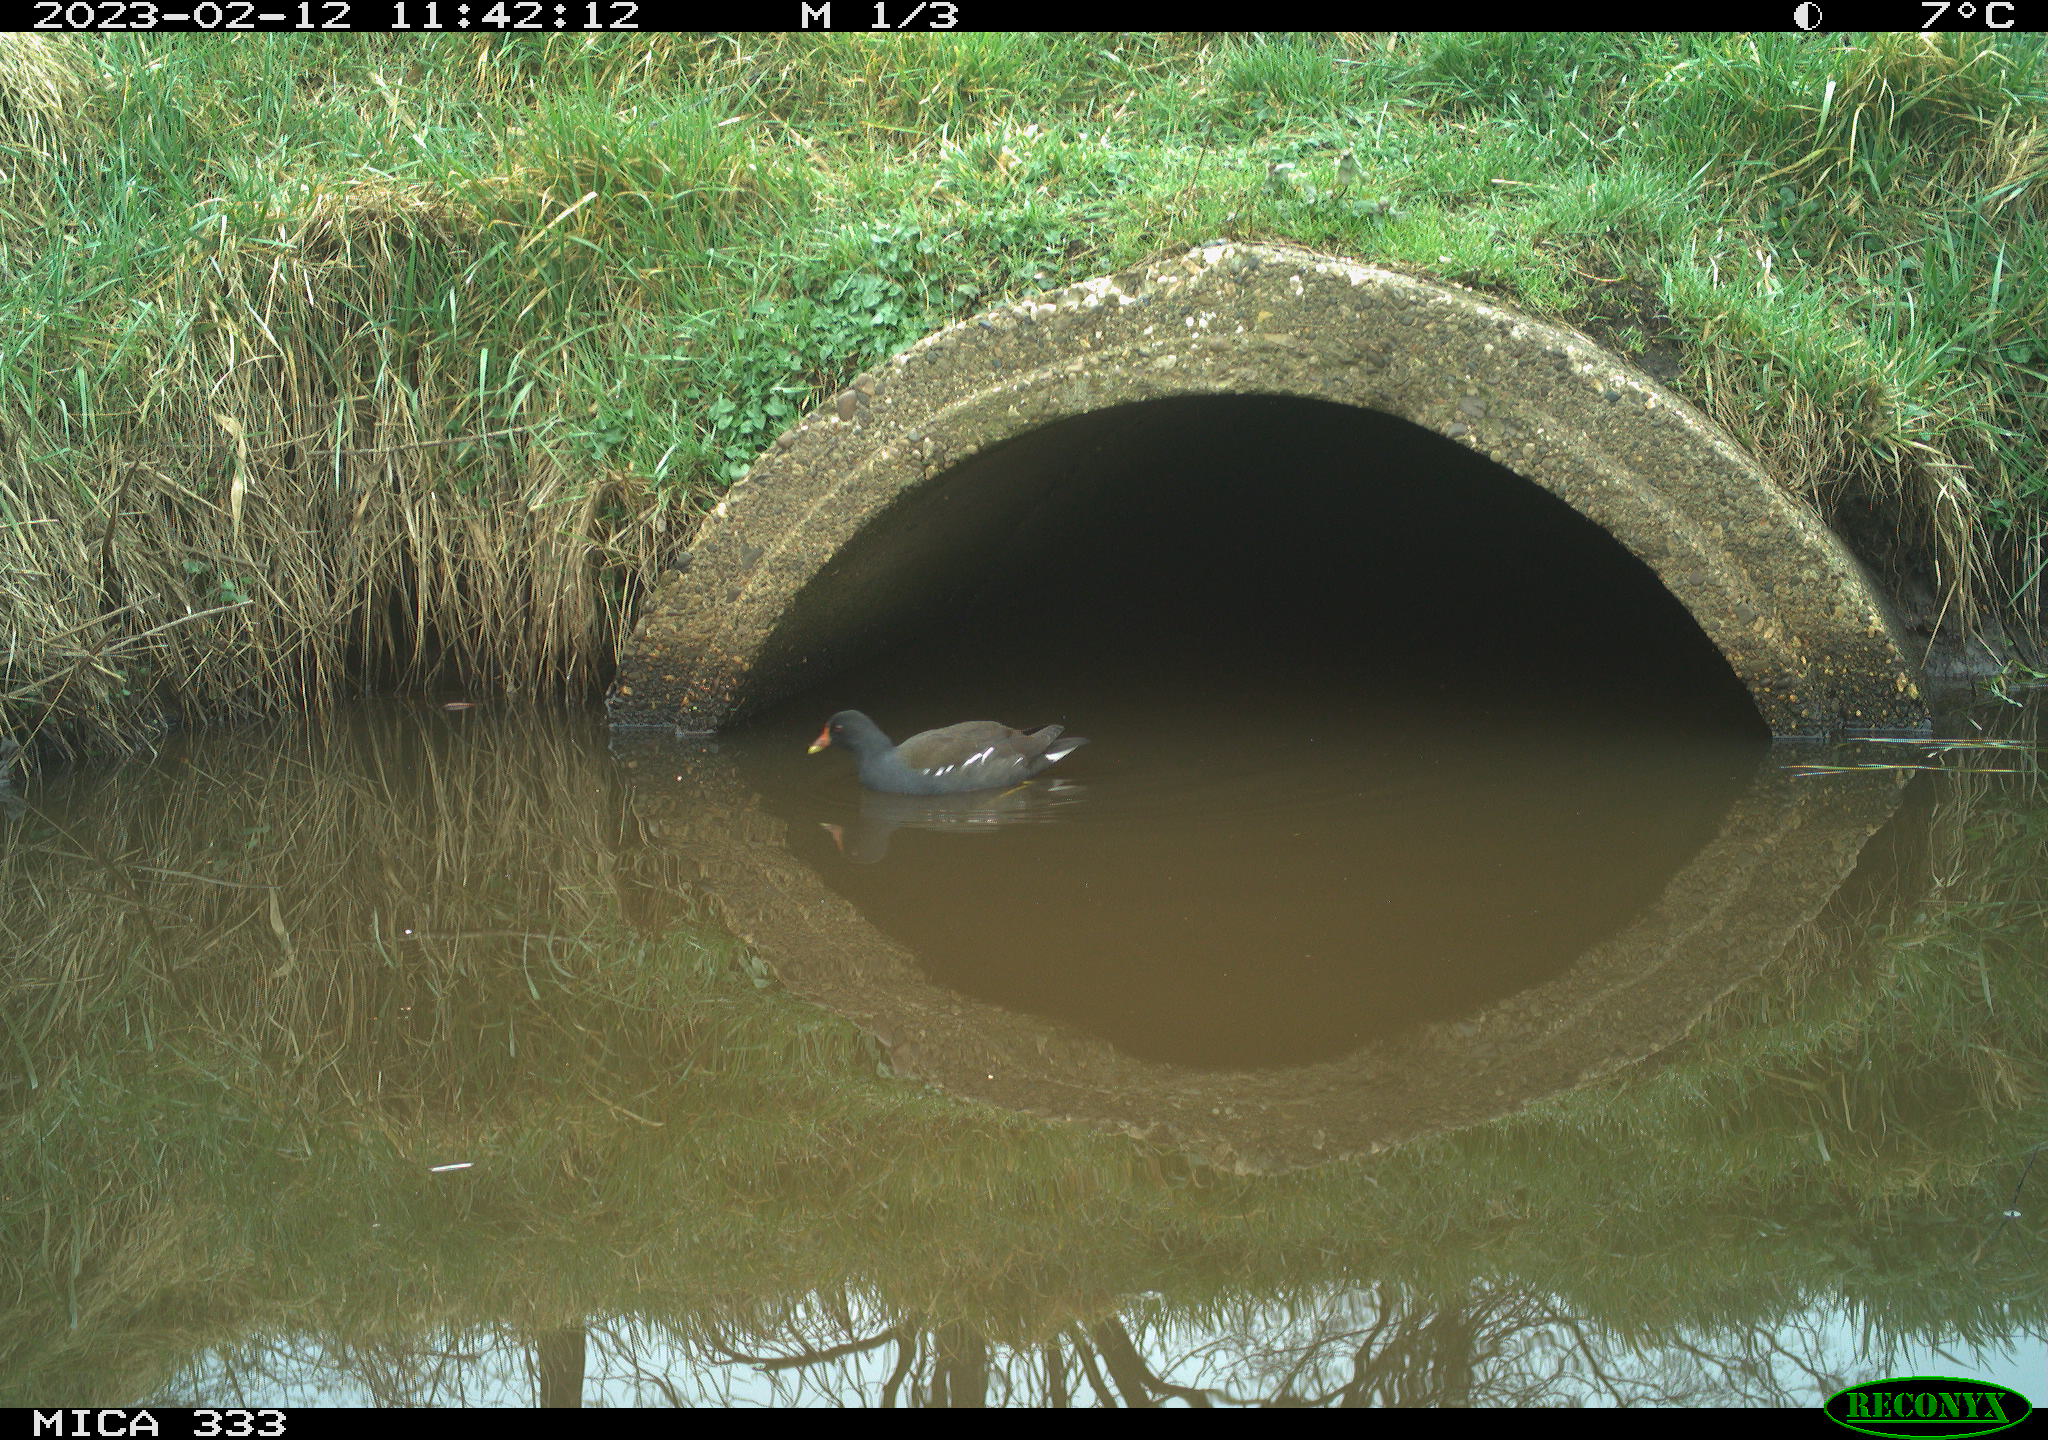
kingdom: Animalia
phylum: Chordata
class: Aves
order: Gruiformes
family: Rallidae
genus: Gallinula
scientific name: Gallinula chloropus
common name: Common moorhen
